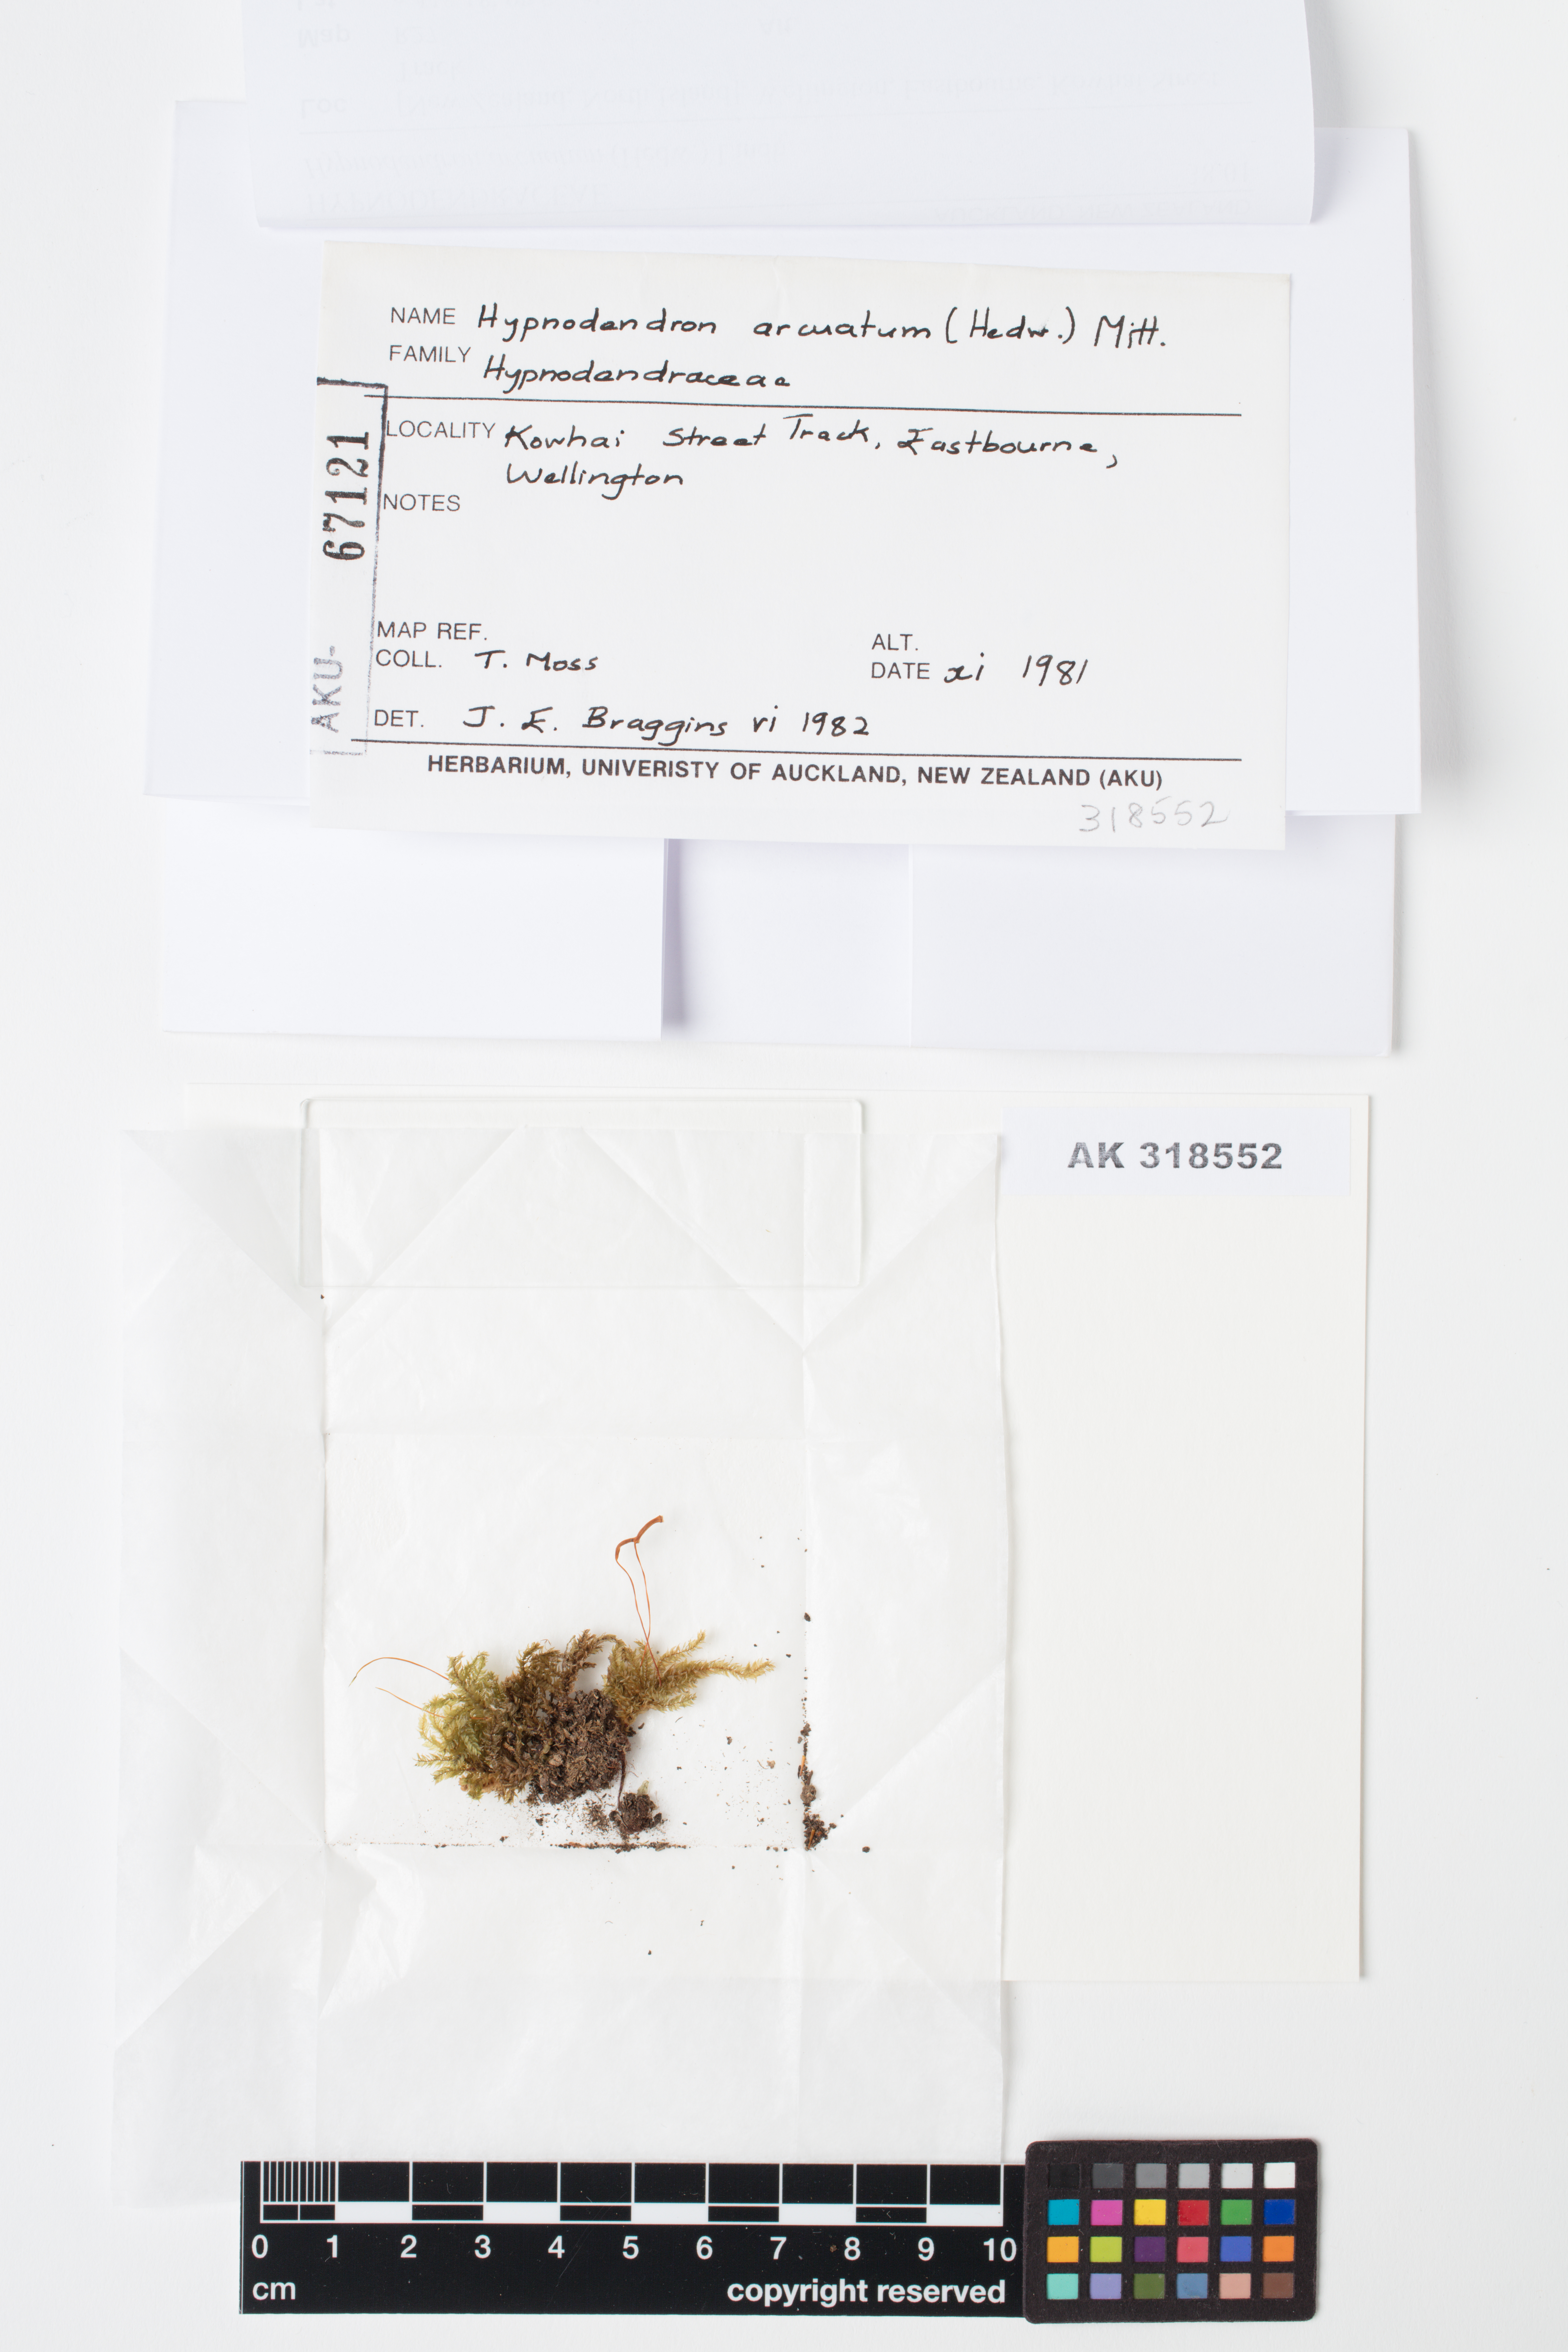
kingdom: Plantae
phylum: Bryophyta
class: Bryopsida
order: Hypnodendrales
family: Spiridentaceae
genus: Hypnodendron
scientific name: Hypnodendron arcuatum
